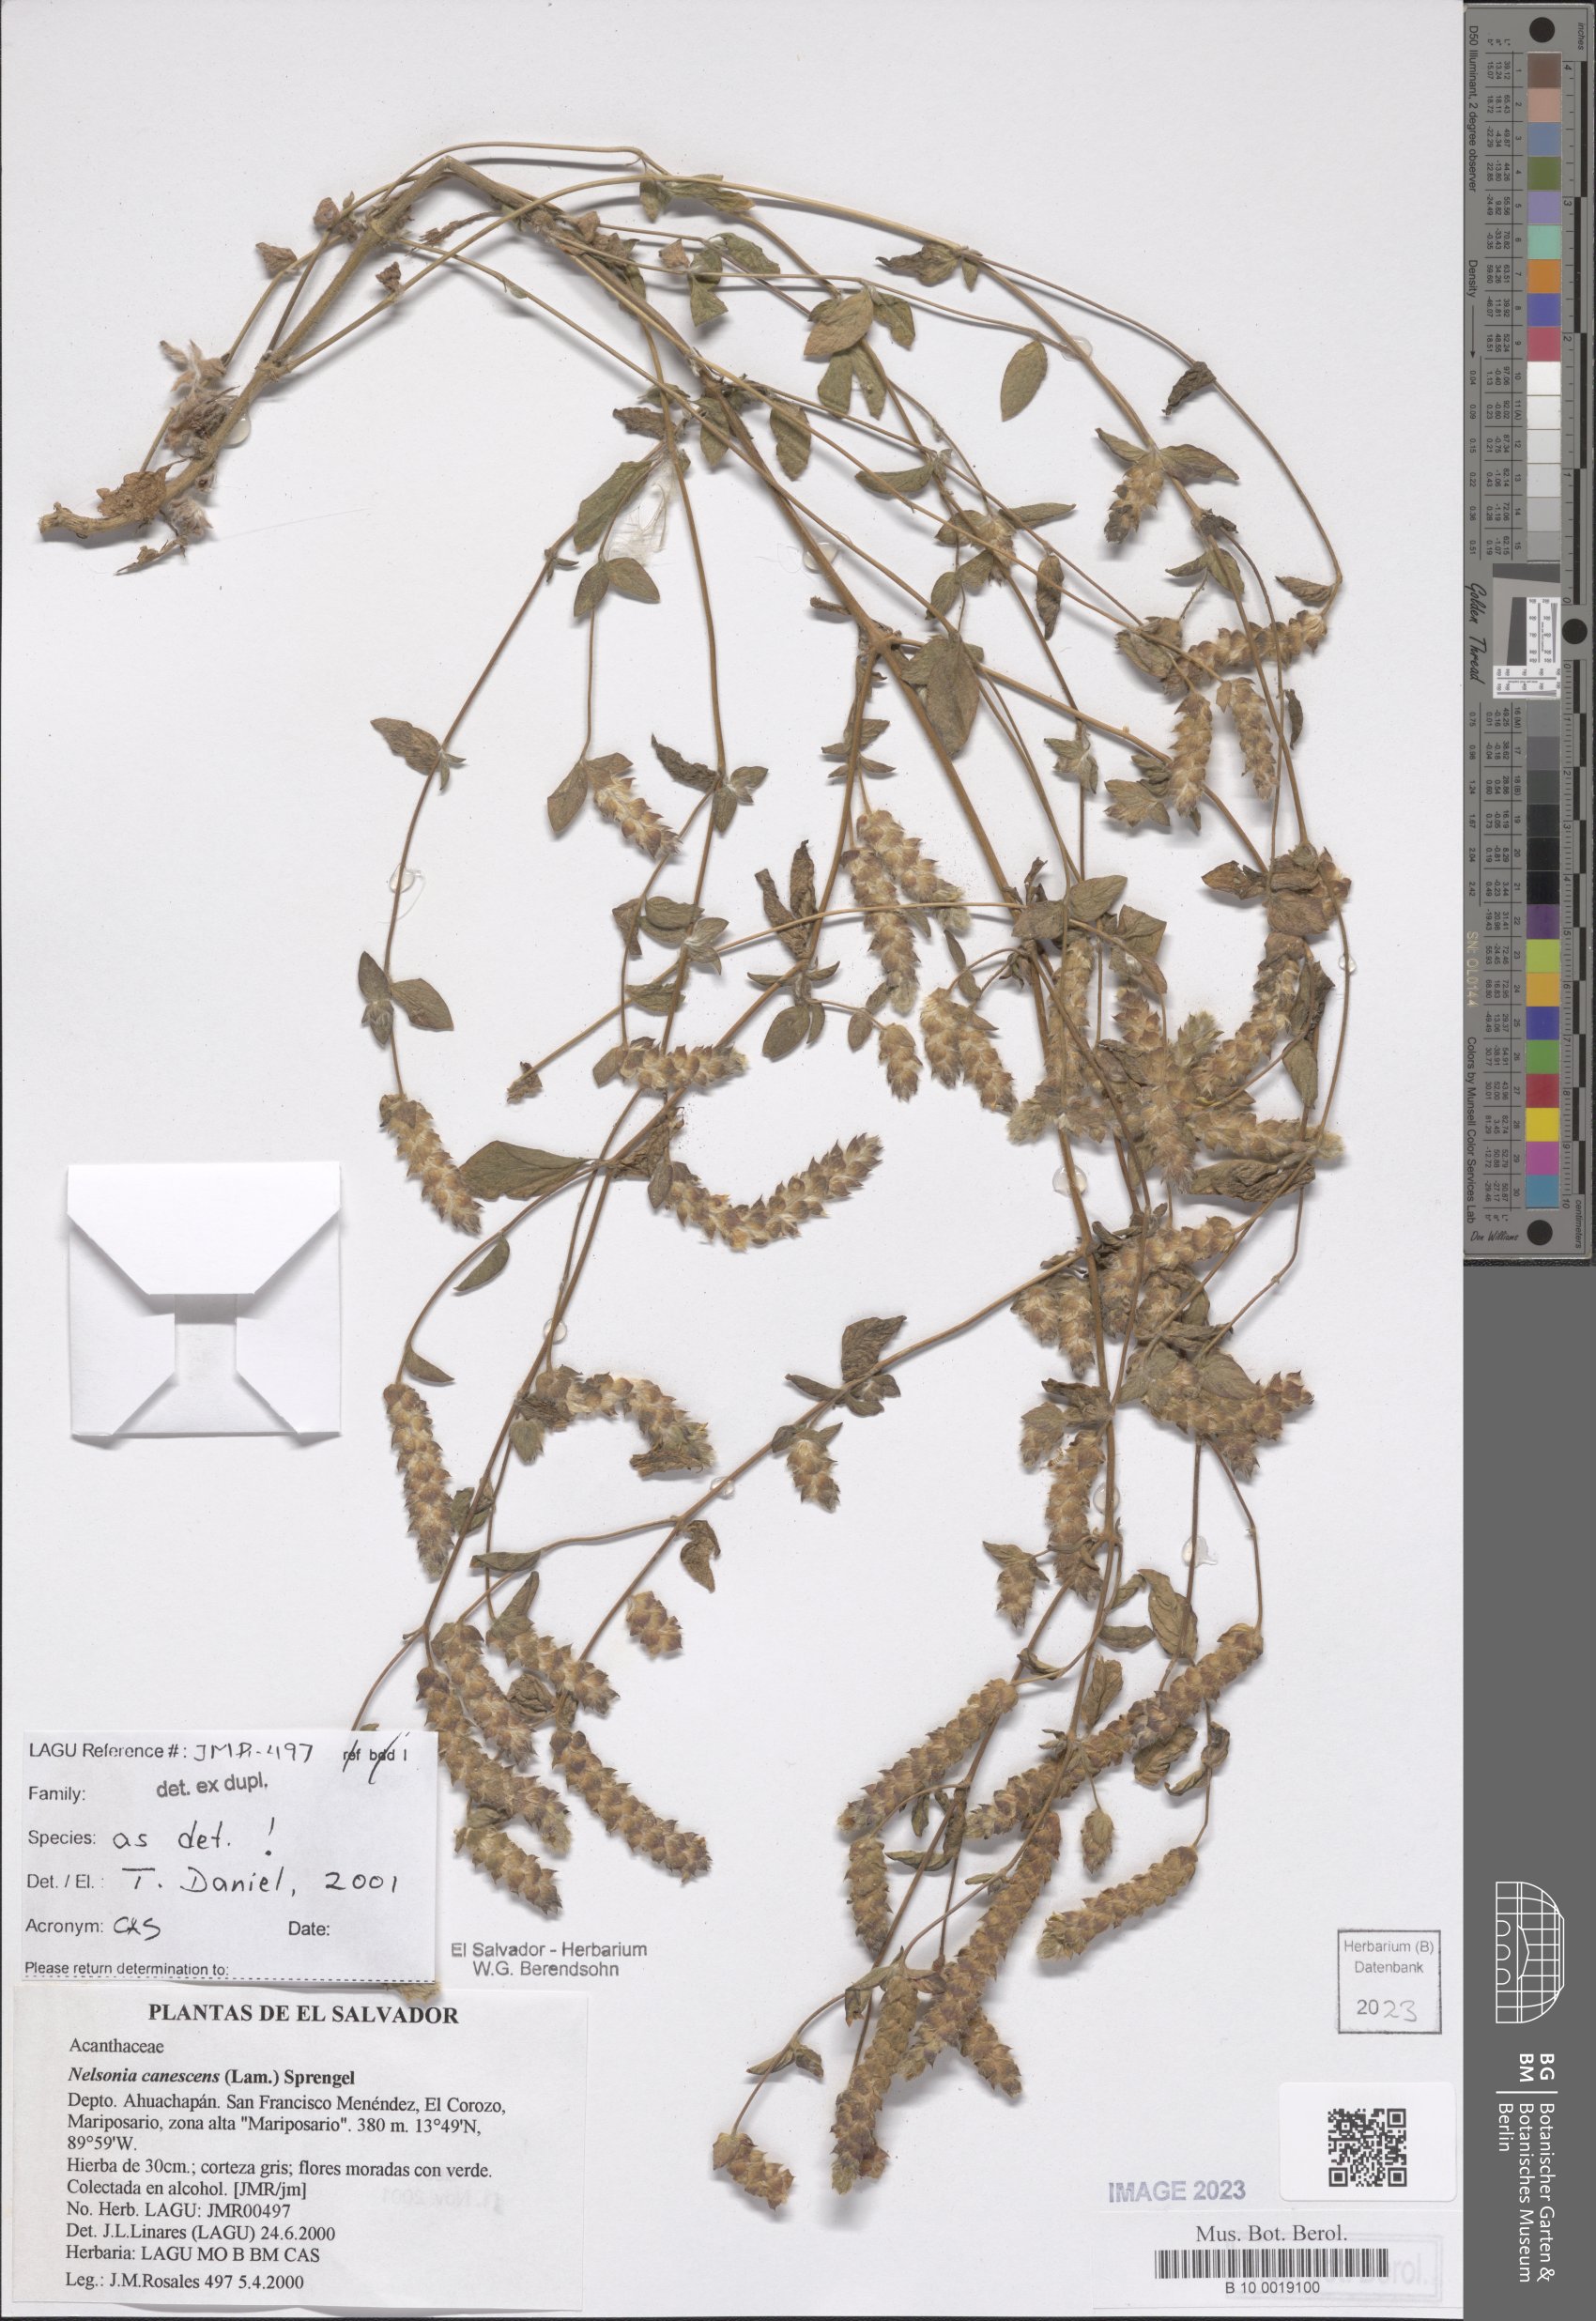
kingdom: Plantae
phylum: Tracheophyta
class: Magnoliopsida
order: Lamiales
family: Acanthaceae
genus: Nelsonia
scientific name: Nelsonia canescens
